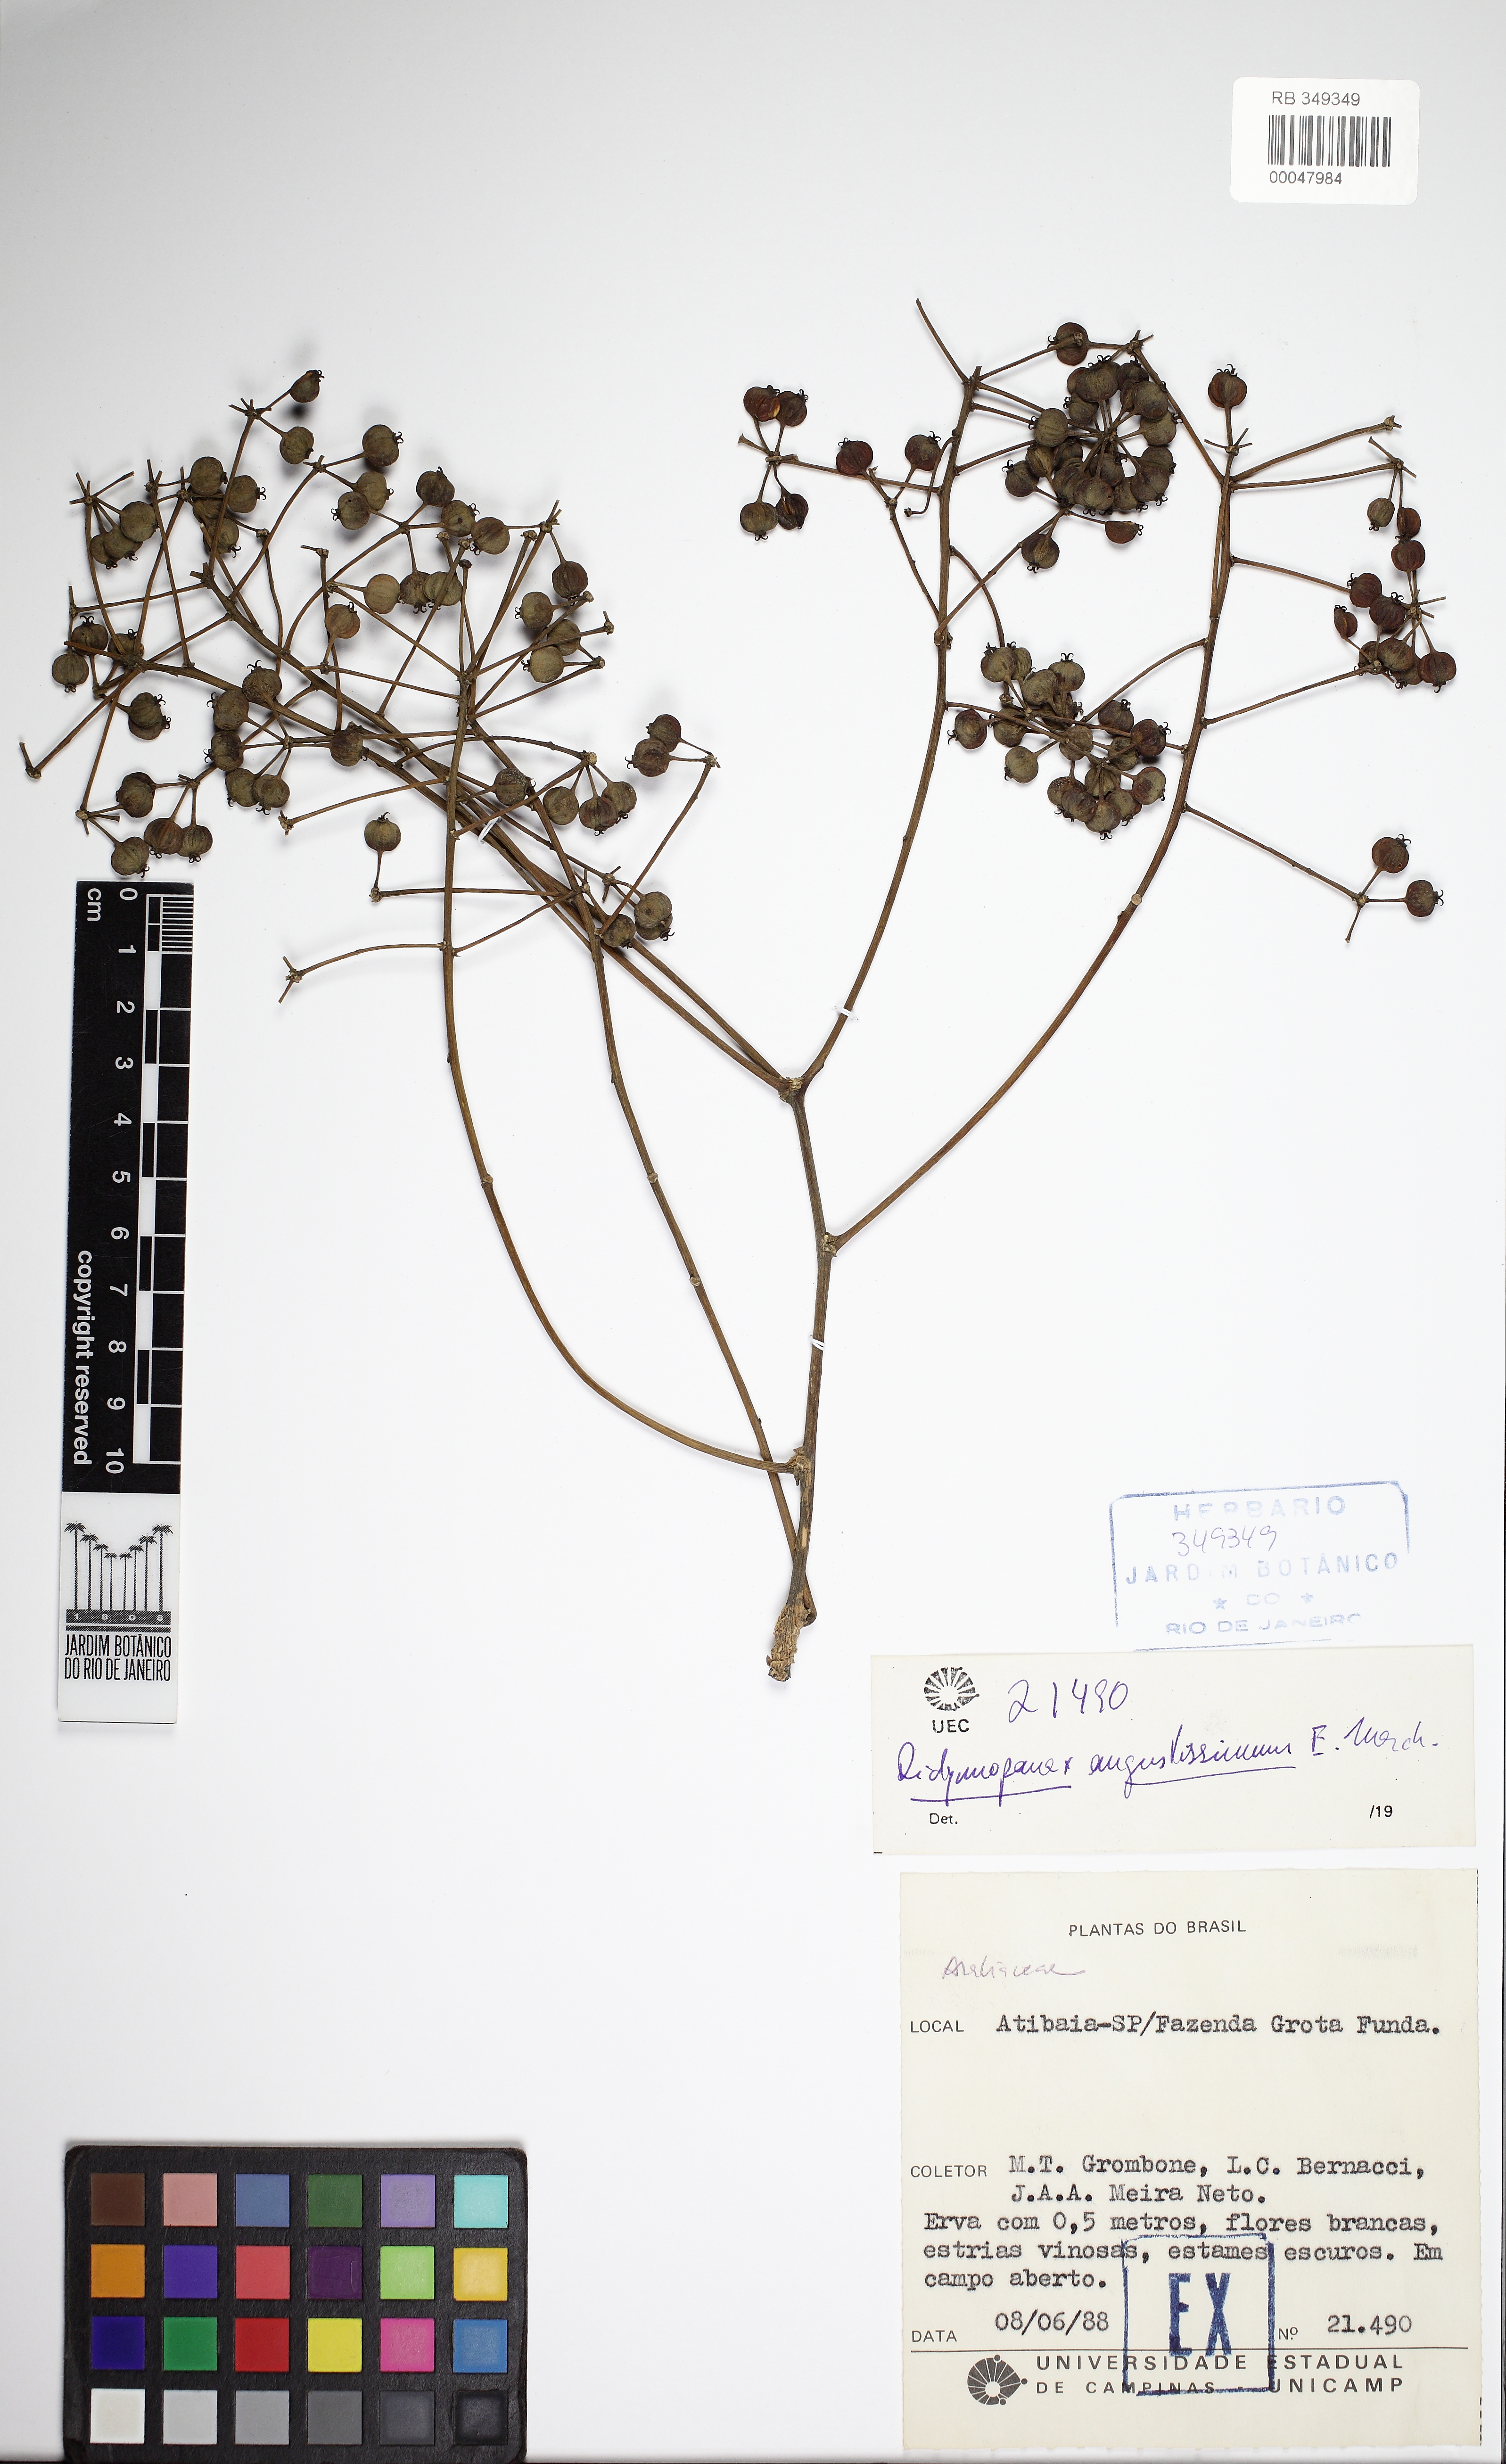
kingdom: Plantae
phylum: Tracheophyta
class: Magnoliopsida
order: Apiales
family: Araliaceae
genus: Didymopanax
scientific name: Didymopanax acuminatus
